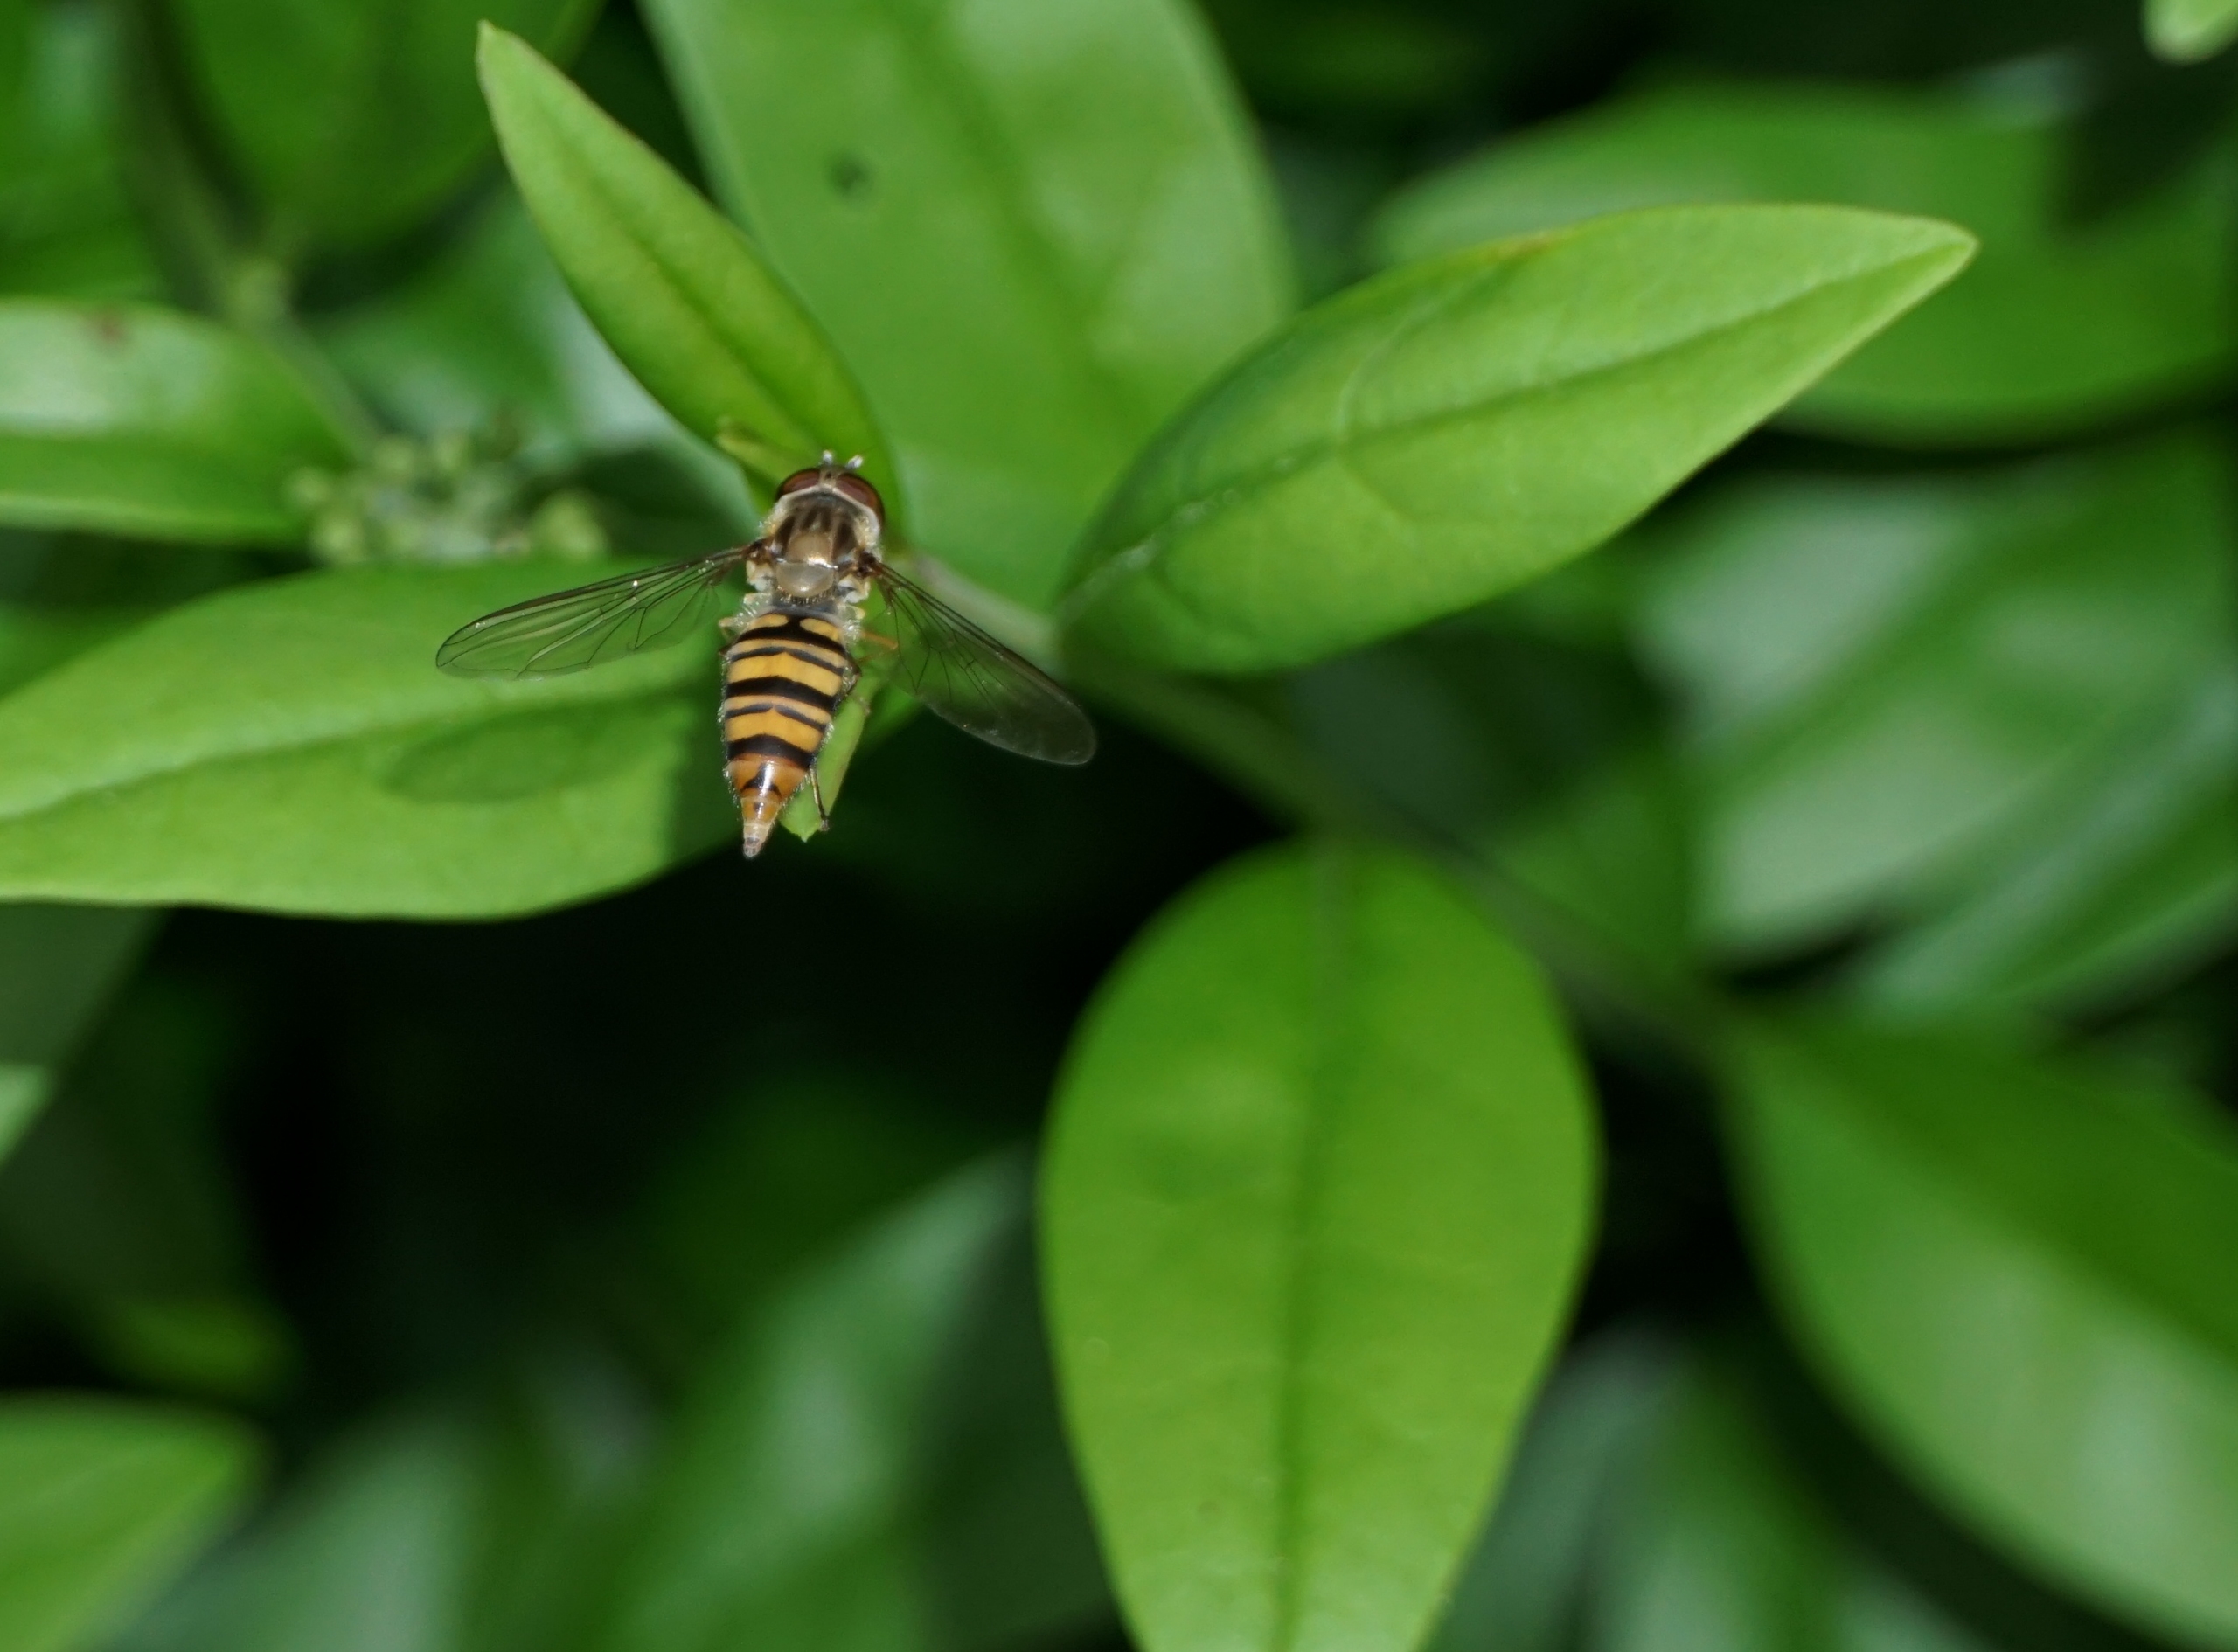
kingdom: Animalia
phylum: Arthropoda
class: Insecta
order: Diptera
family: Syrphidae
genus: Episyrphus
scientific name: Episyrphus balteatus
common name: Dobbeltbåndet svirreflue
